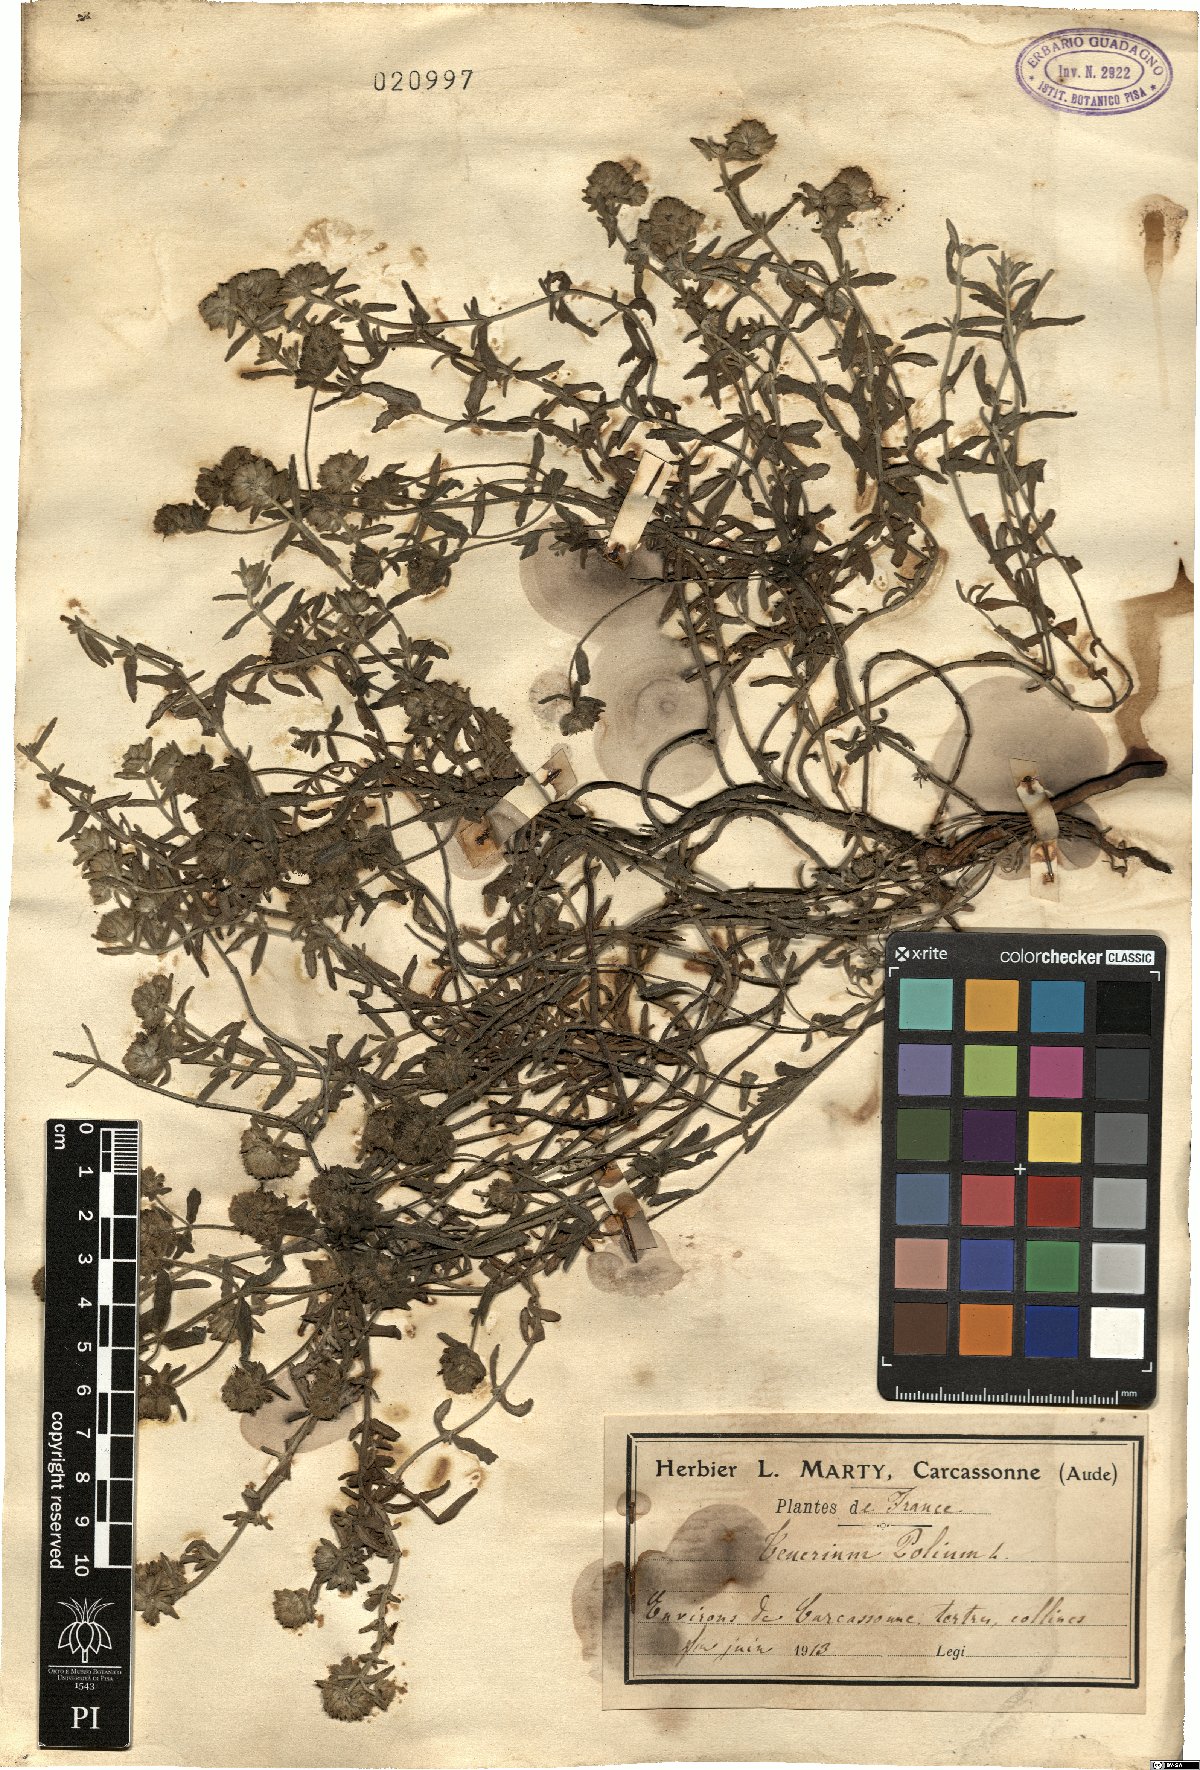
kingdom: Plantae
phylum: Tracheophyta
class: Magnoliopsida
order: Lamiales
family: Lamiaceae
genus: Teucrium
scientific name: Teucrium polium
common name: Poley
